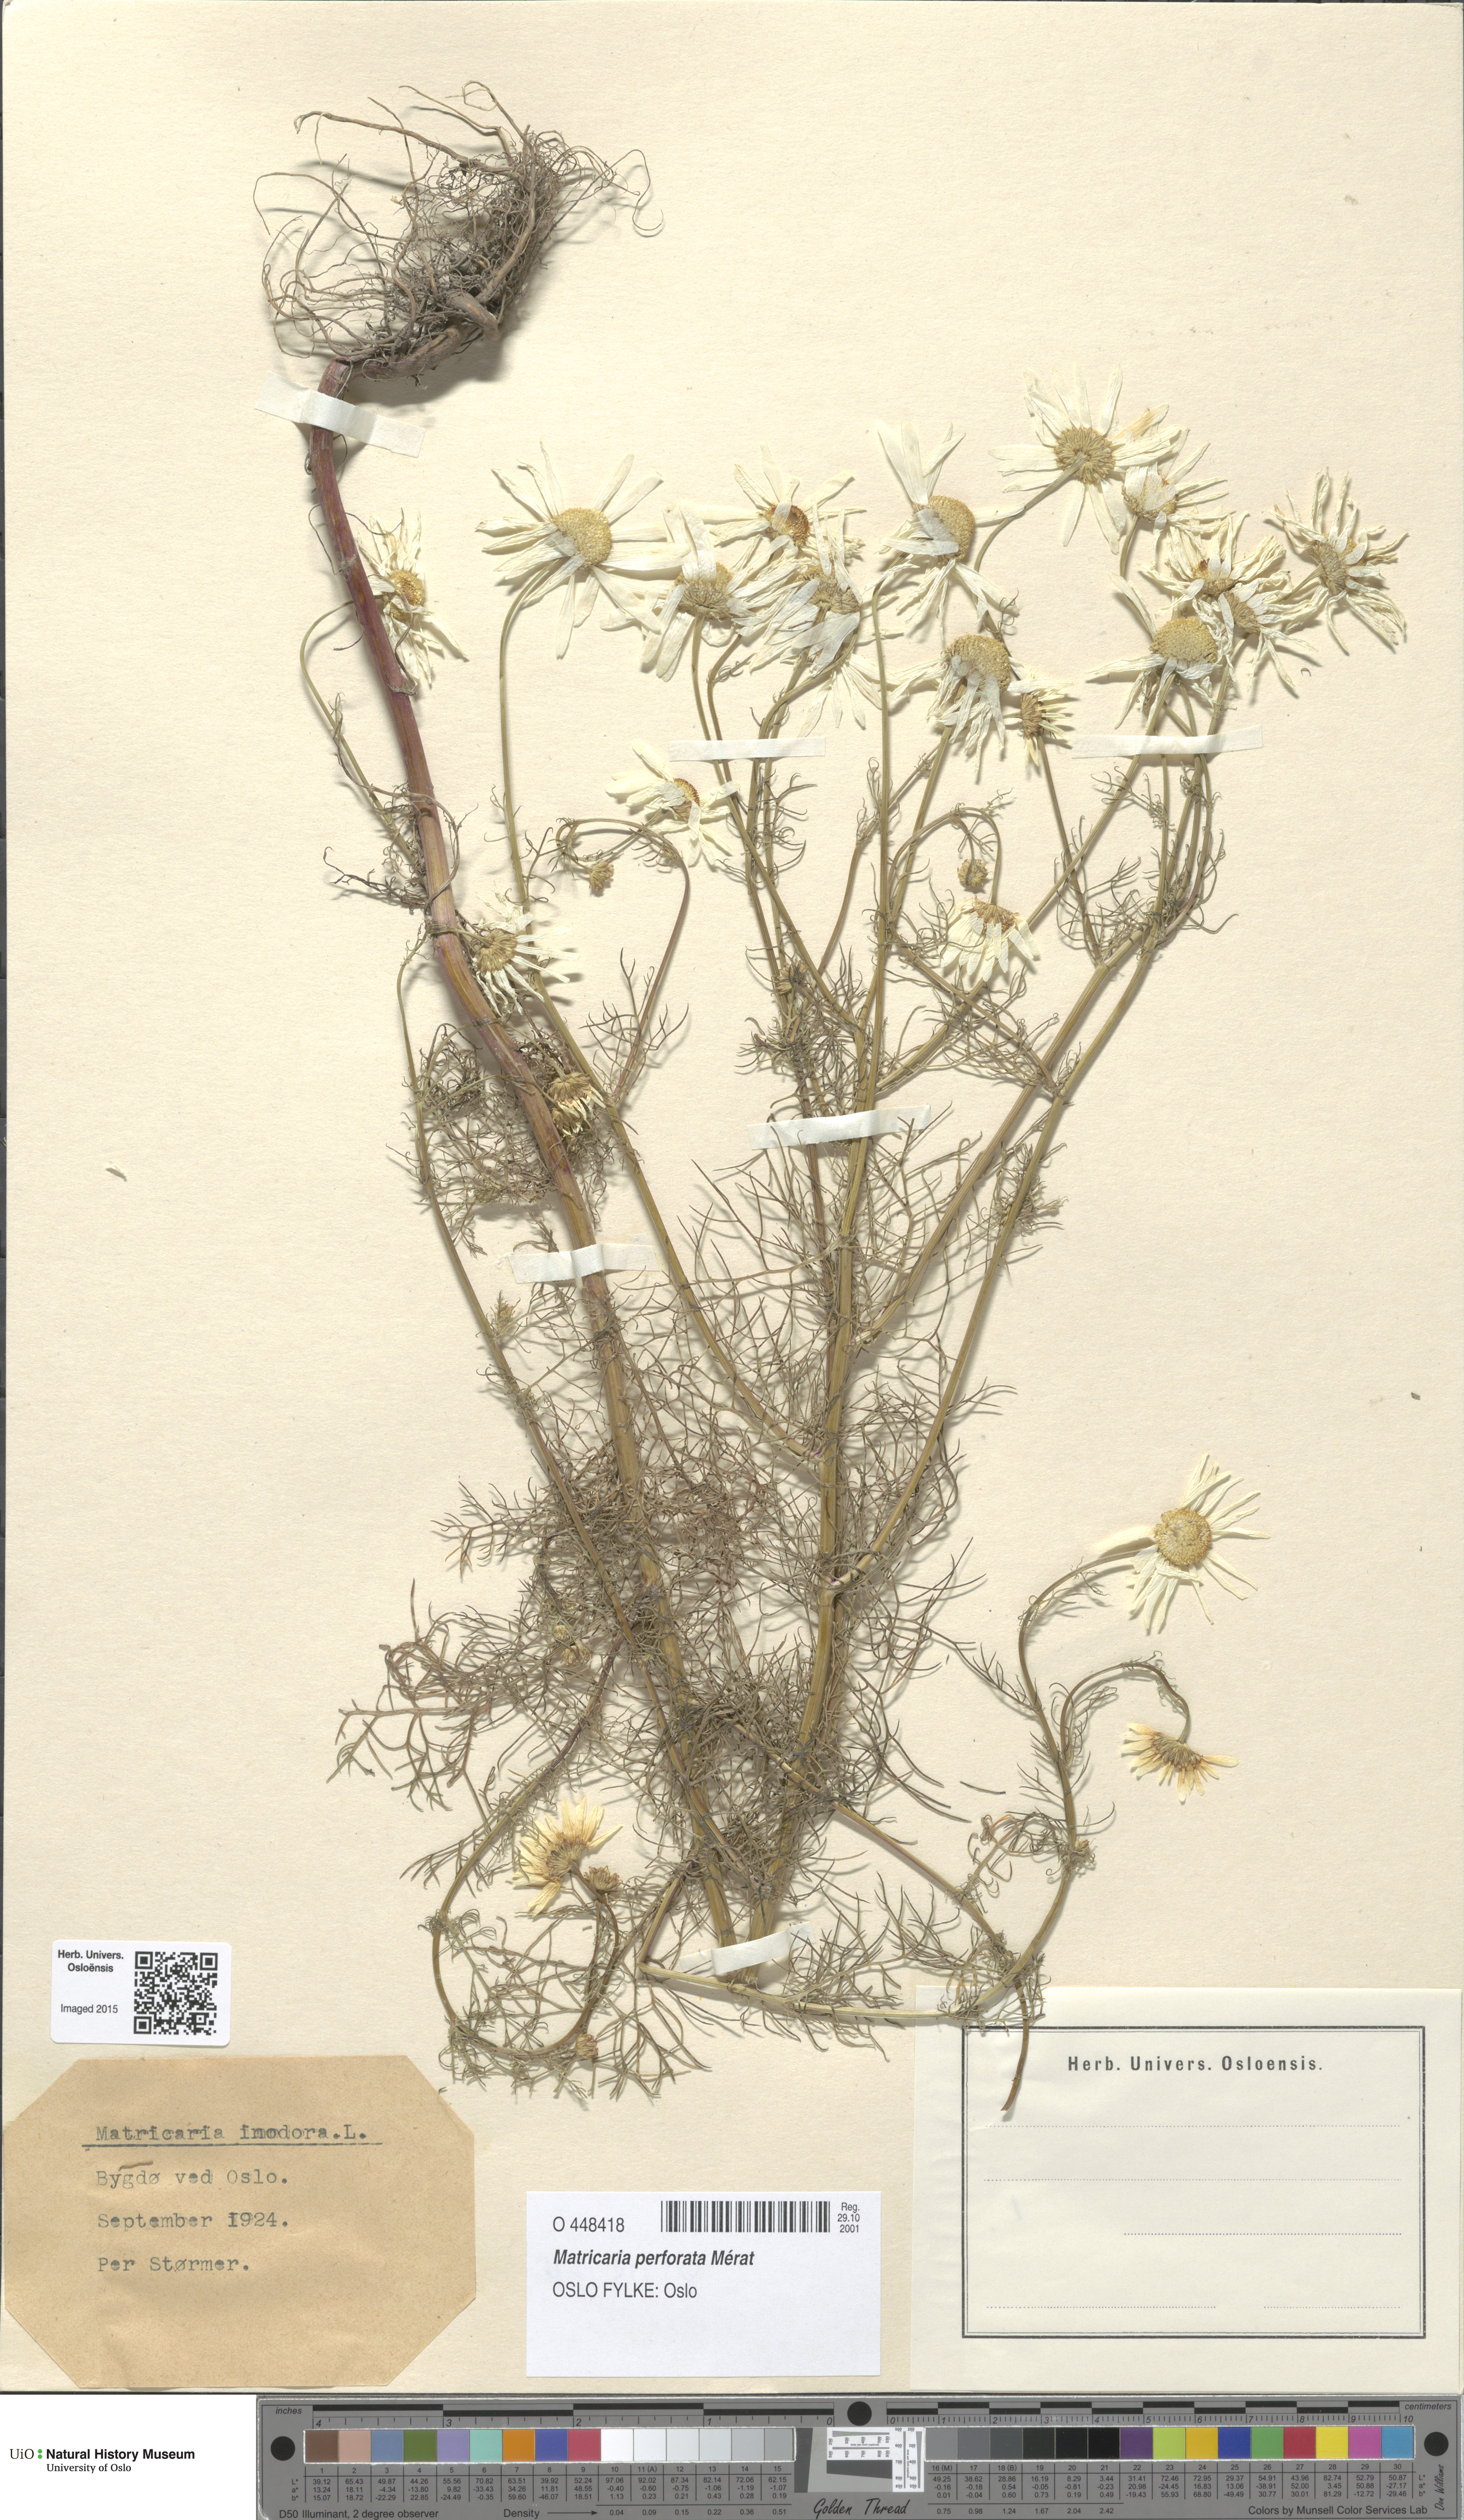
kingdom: Plantae
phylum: Tracheophyta
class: Magnoliopsida
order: Asterales
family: Asteraceae
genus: Tripleurospermum
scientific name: Tripleurospermum inodorum
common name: Scentless mayweed
